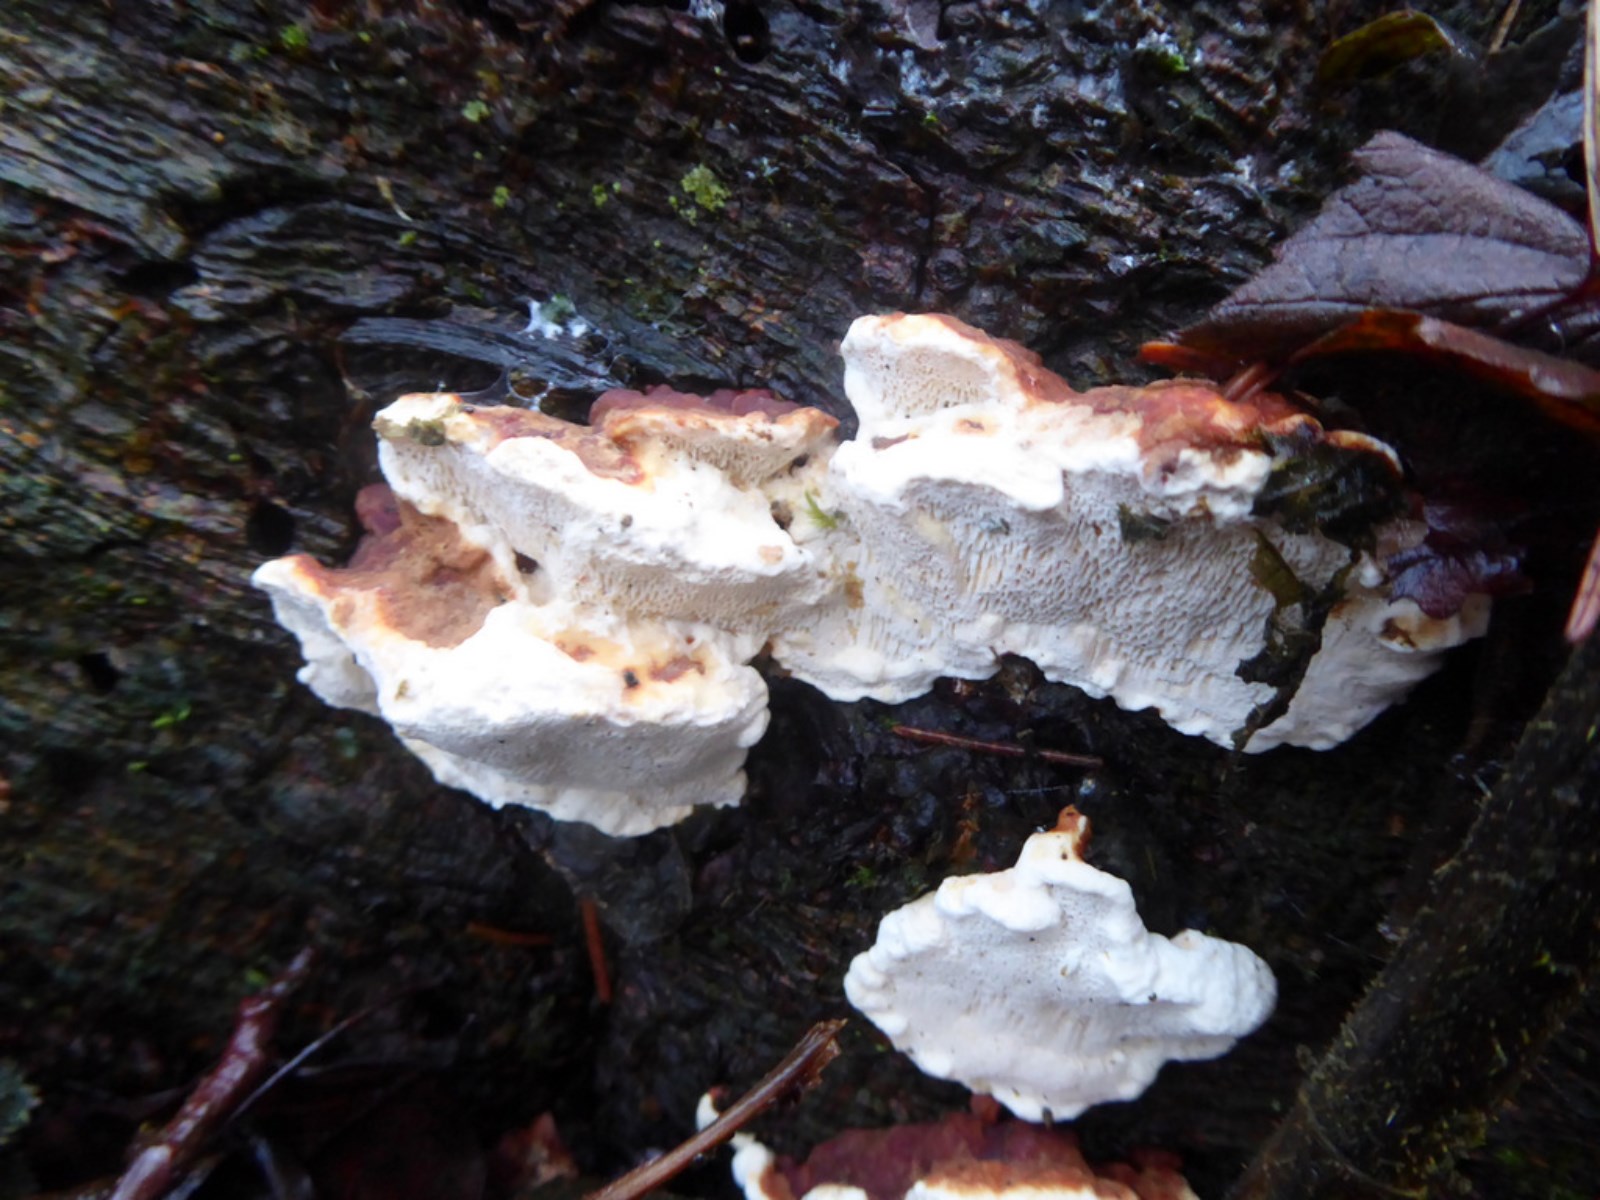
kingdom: Fungi
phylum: Basidiomycota
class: Agaricomycetes
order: Russulales
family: Bondarzewiaceae
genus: Heterobasidion
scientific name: Heterobasidion annosum
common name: almindelig rodfordærver
